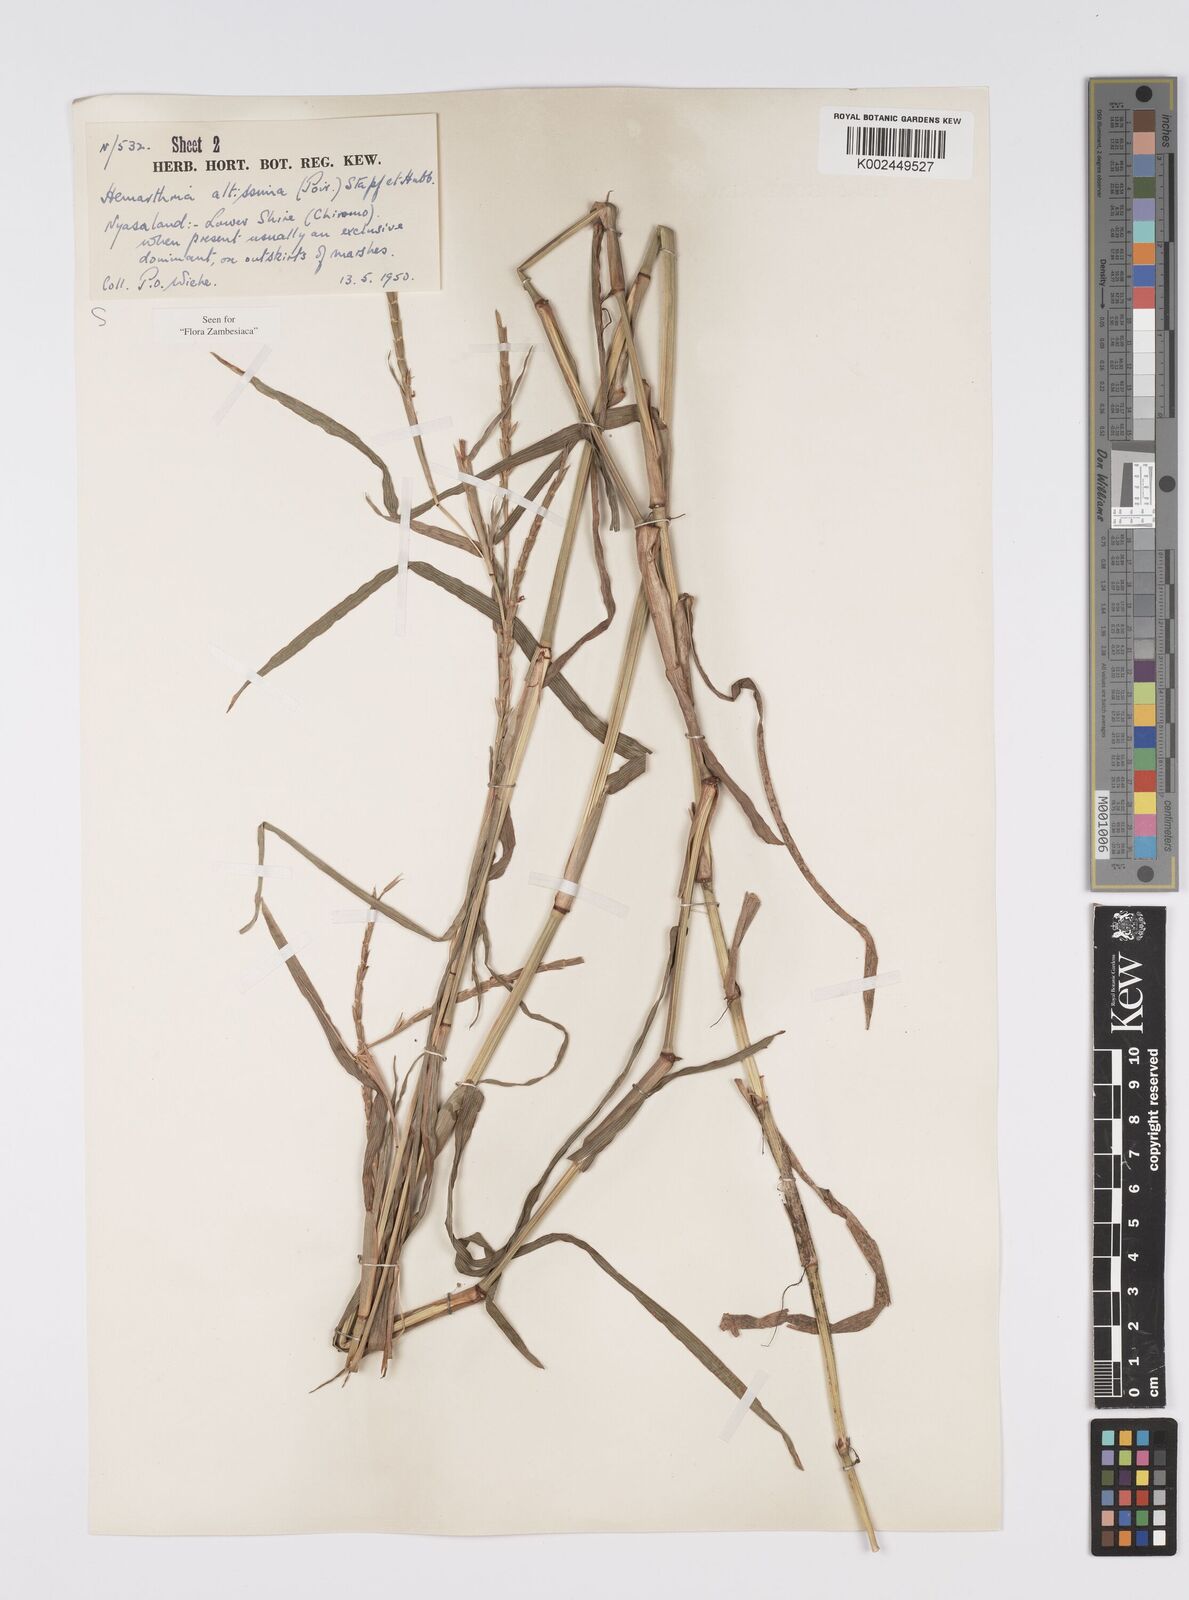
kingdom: Plantae
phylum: Tracheophyta
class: Liliopsida
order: Poales
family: Poaceae
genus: Hemarthria
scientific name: Hemarthria altissima
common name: African jointgrass
